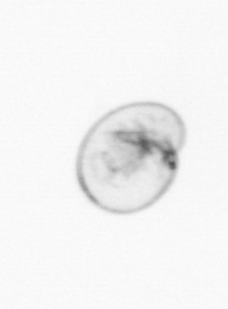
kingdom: Chromista
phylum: Myzozoa
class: Dinophyceae
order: Noctilucales
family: Noctilucaceae
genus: Noctiluca
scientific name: Noctiluca scintillans
